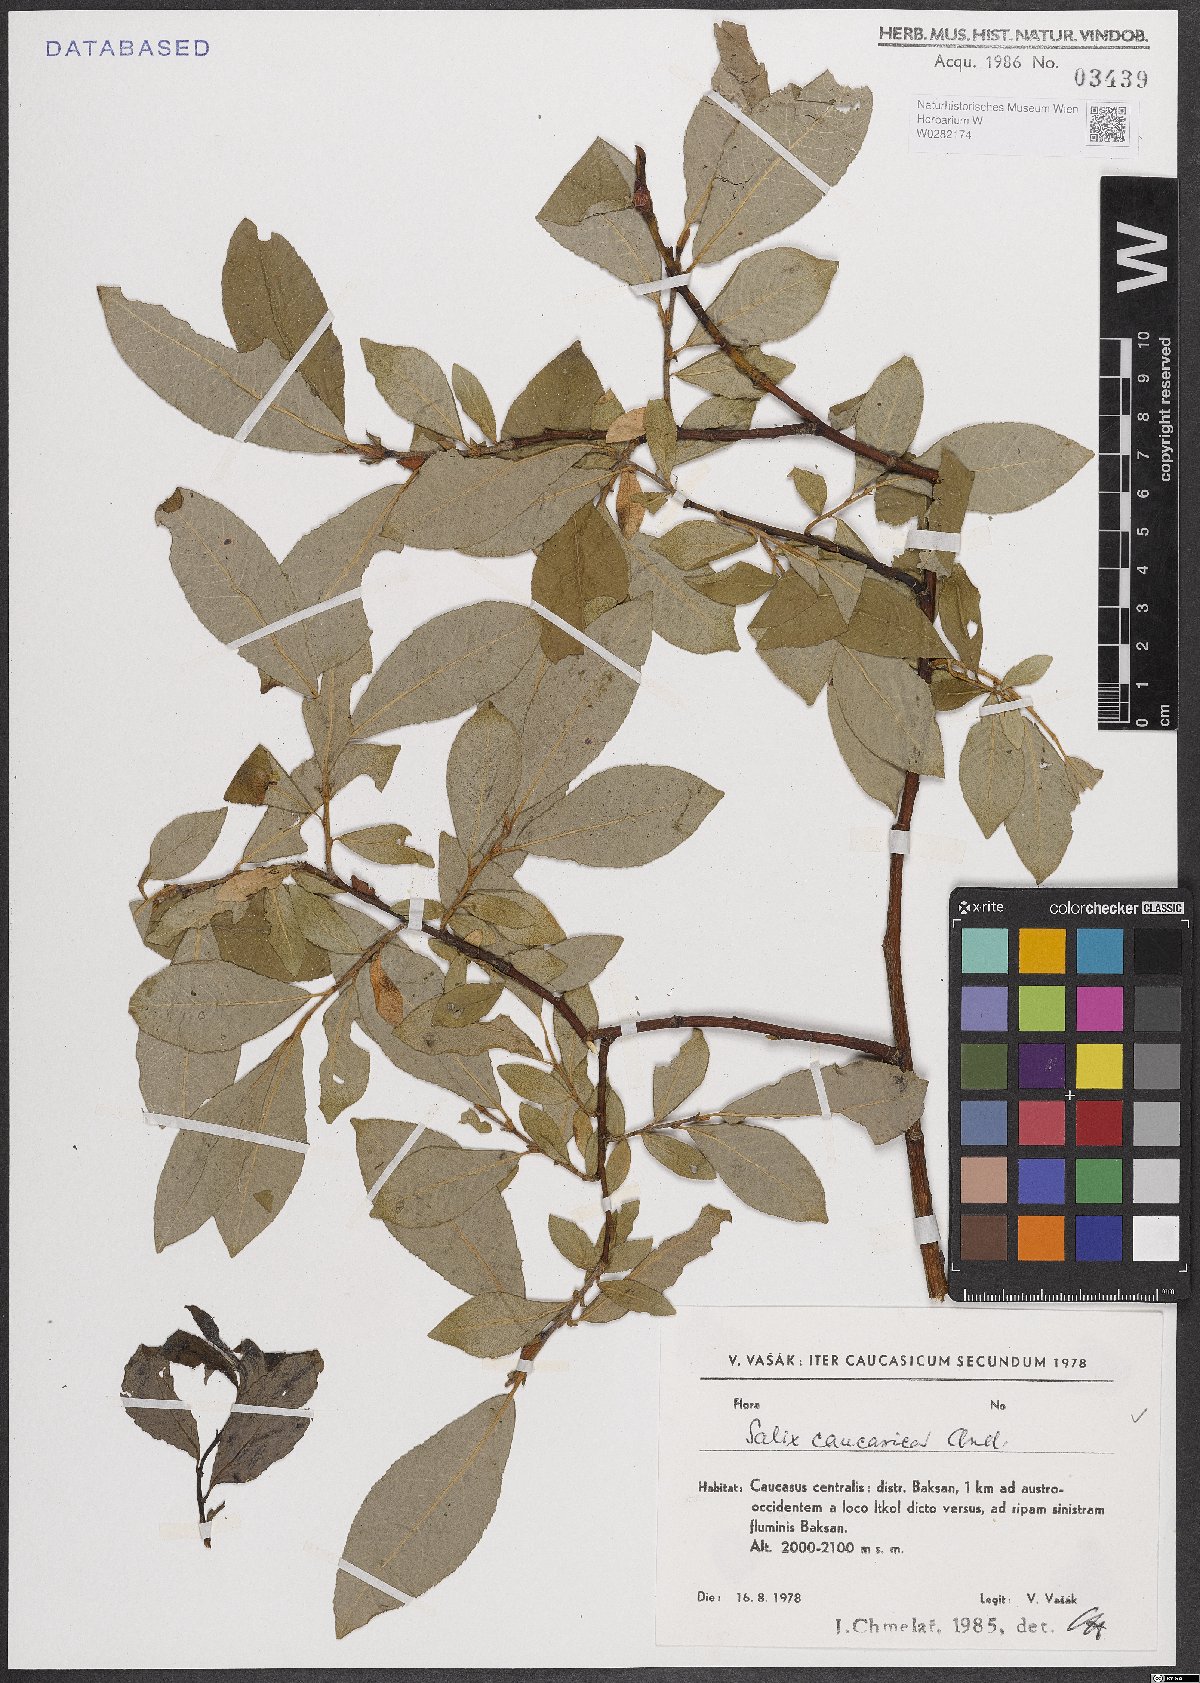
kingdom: Plantae
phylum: Tracheophyta
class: Magnoliopsida
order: Malpighiales
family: Salicaceae
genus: Salix
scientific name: Salix caucasica
